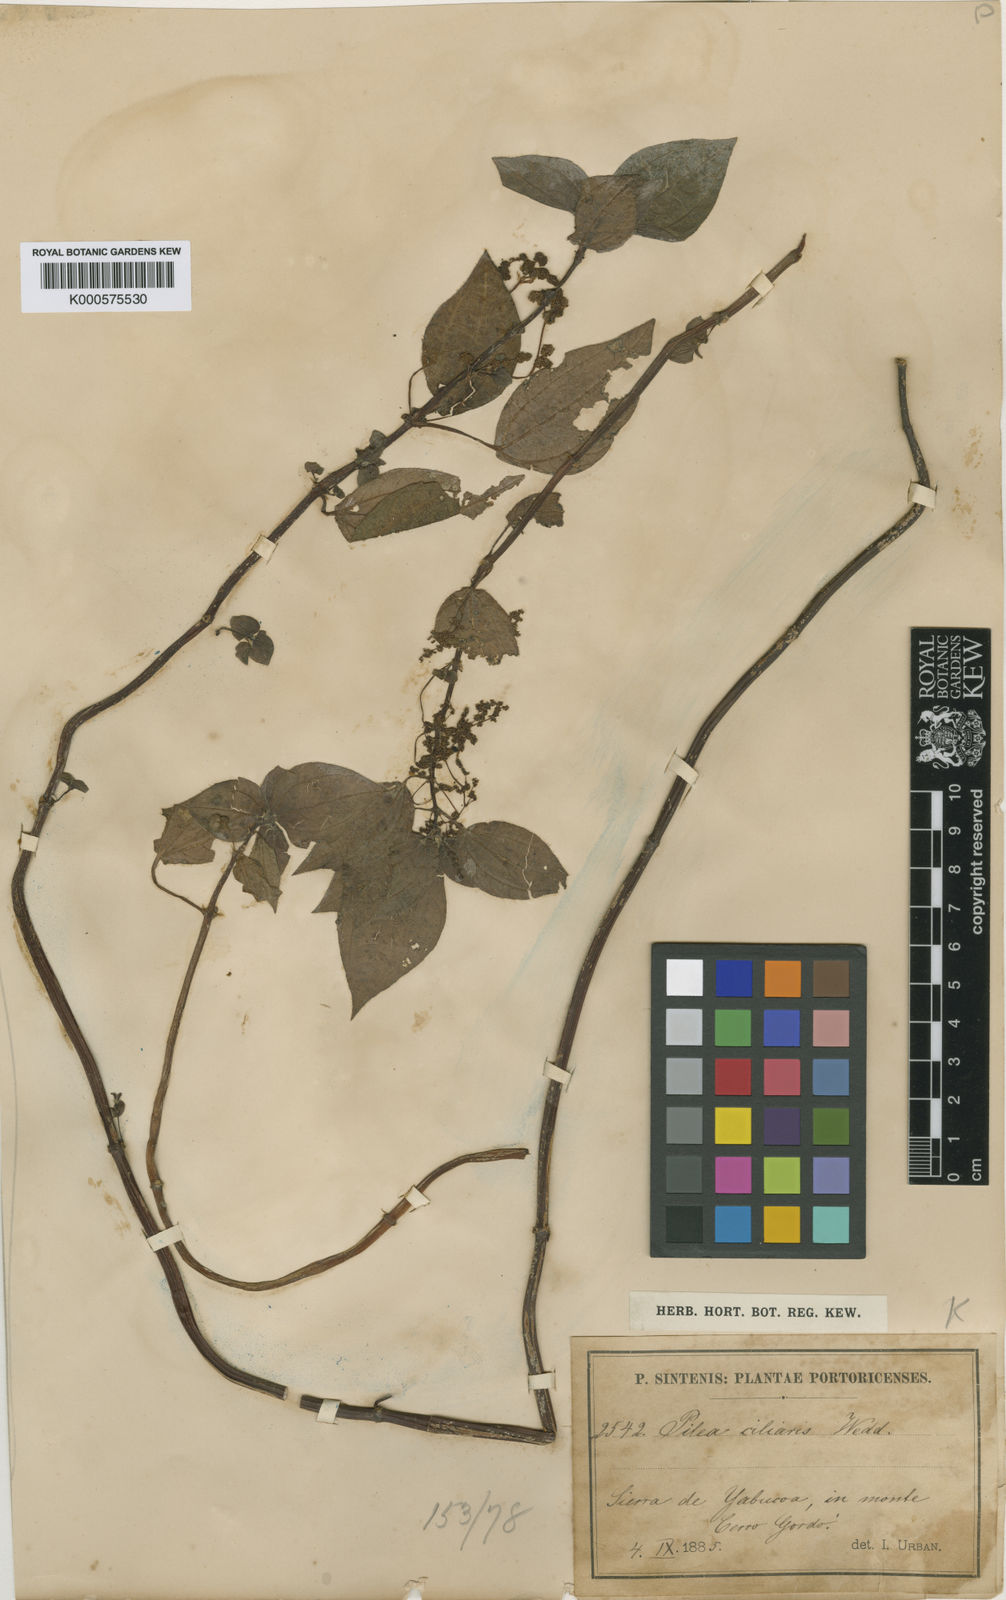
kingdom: Plantae
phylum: Tracheophyta
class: Magnoliopsida
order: Rosales
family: Urticaceae
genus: Pilea
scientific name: Pilea parietaria
